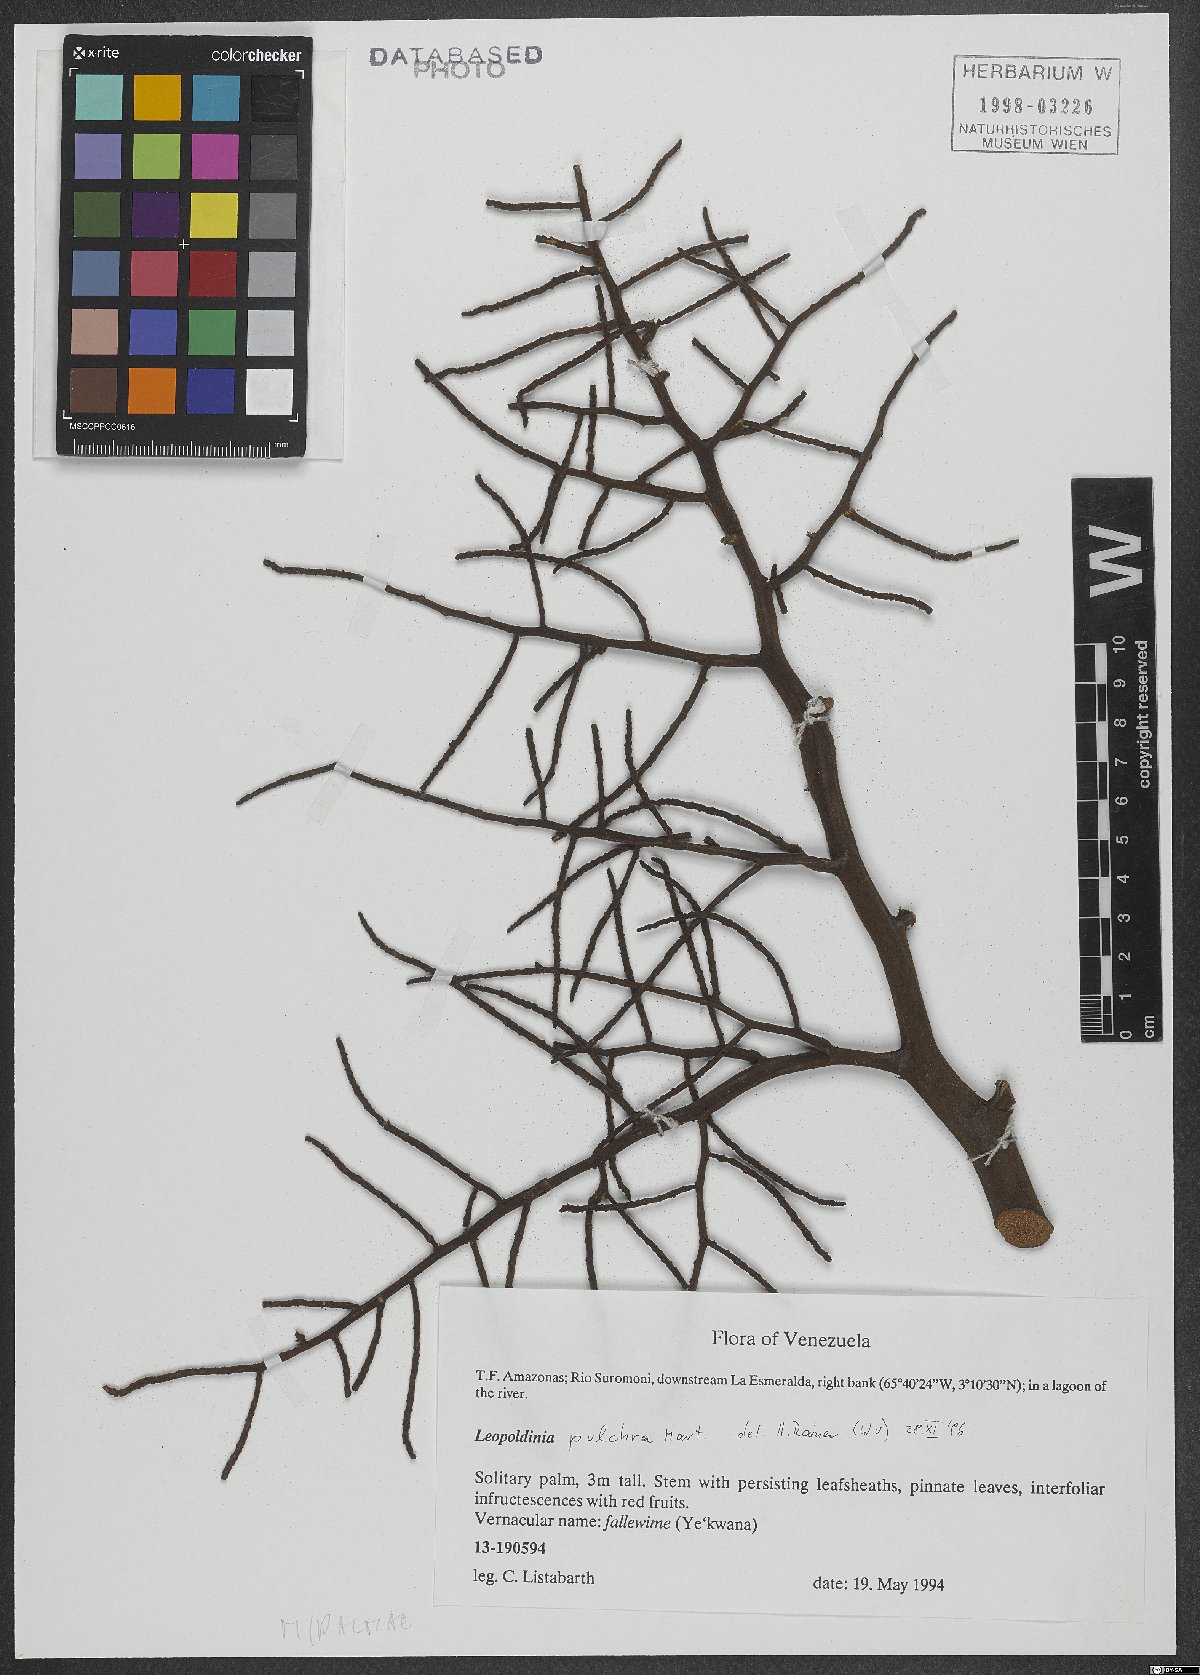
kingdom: Plantae
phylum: Tracheophyta
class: Liliopsida
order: Arecales
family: Arecaceae
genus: Leopoldinia
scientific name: Leopoldinia pulchra
